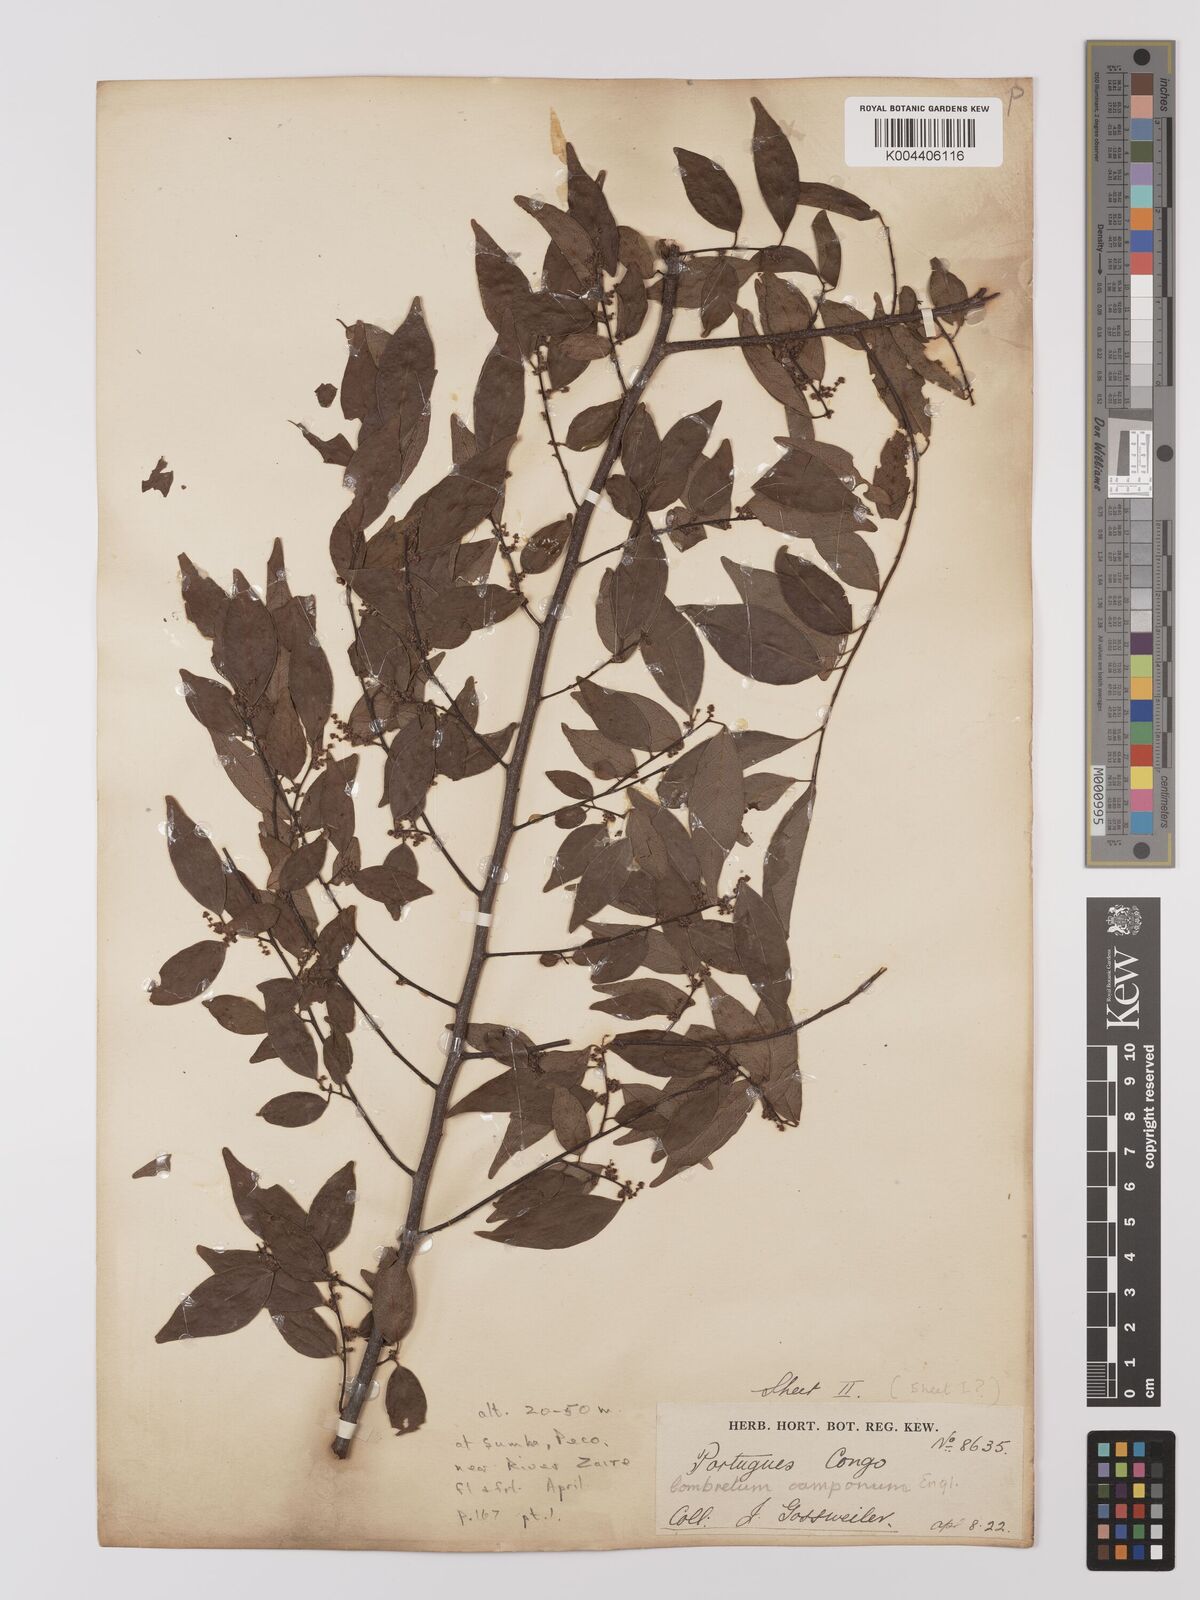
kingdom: Plantae
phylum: Tracheophyta
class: Magnoliopsida
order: Myrtales
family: Combretaceae
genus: Combretum
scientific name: Combretum camporum
